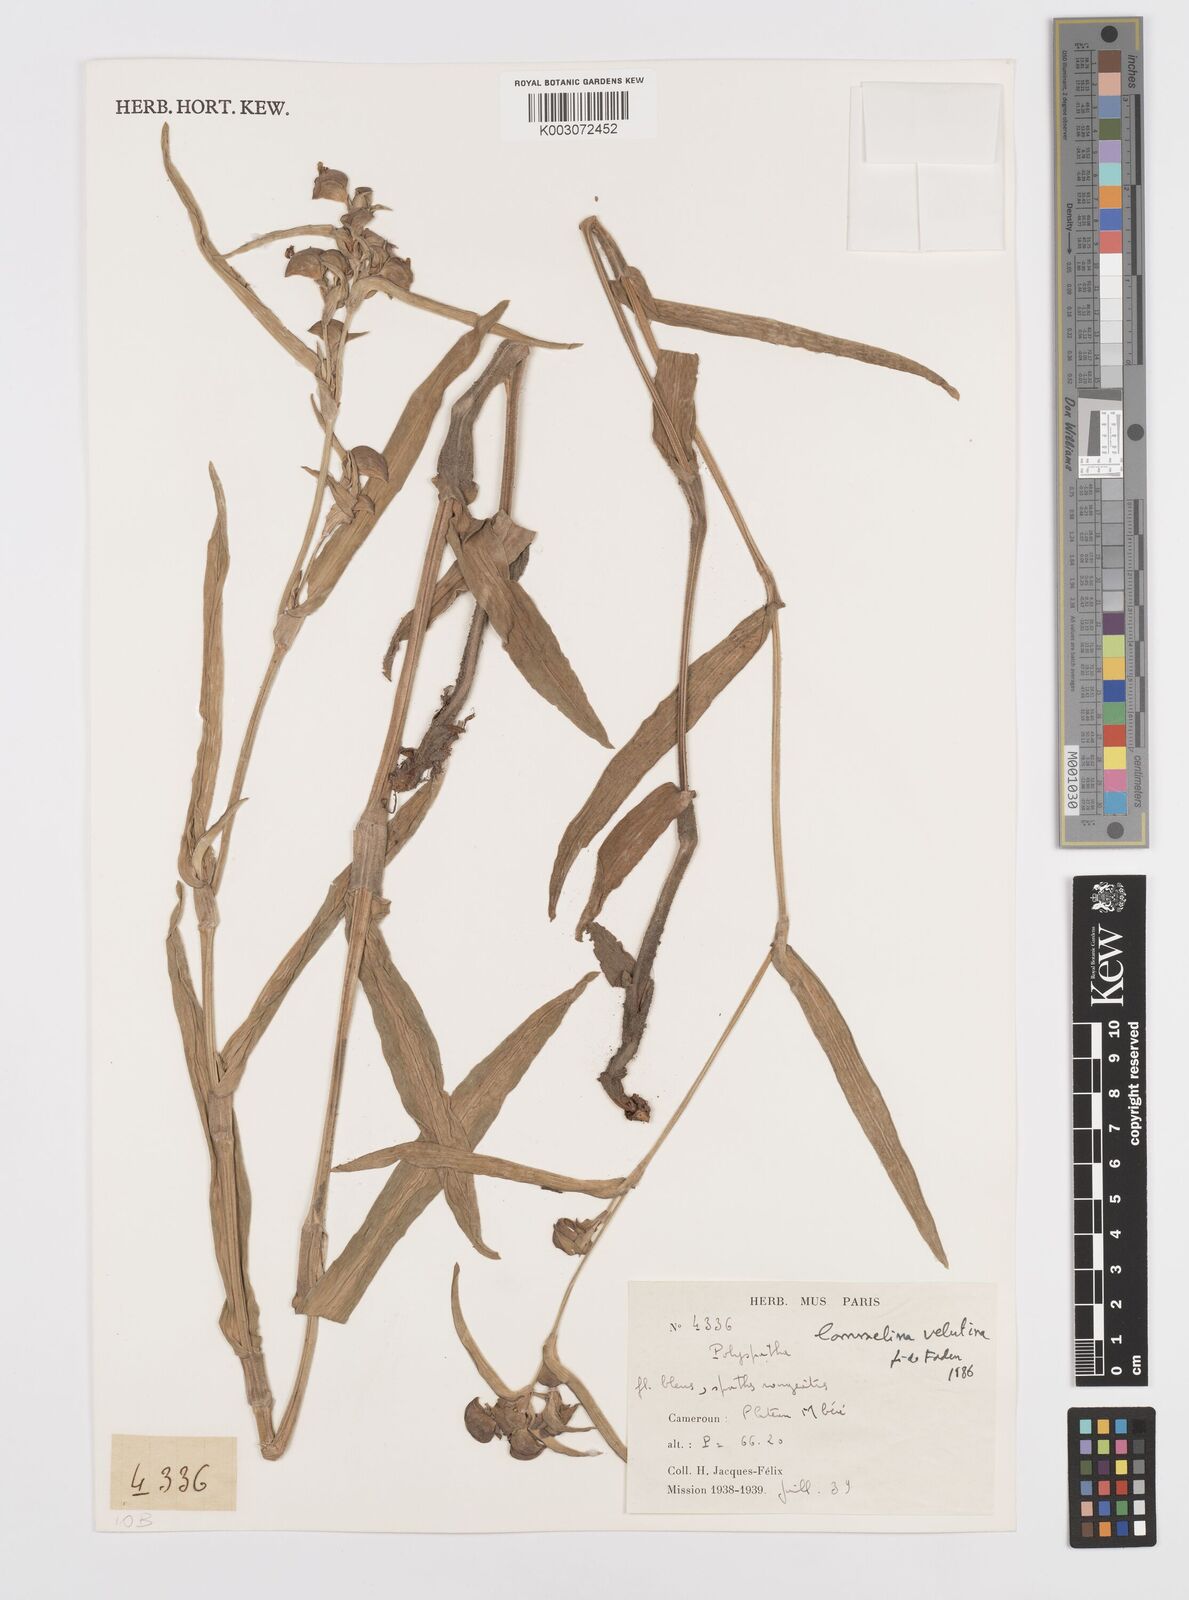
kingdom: Plantae
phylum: Tracheophyta
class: Liliopsida
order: Commelinales
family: Commelinaceae
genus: Commelina
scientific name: Commelina velutina
